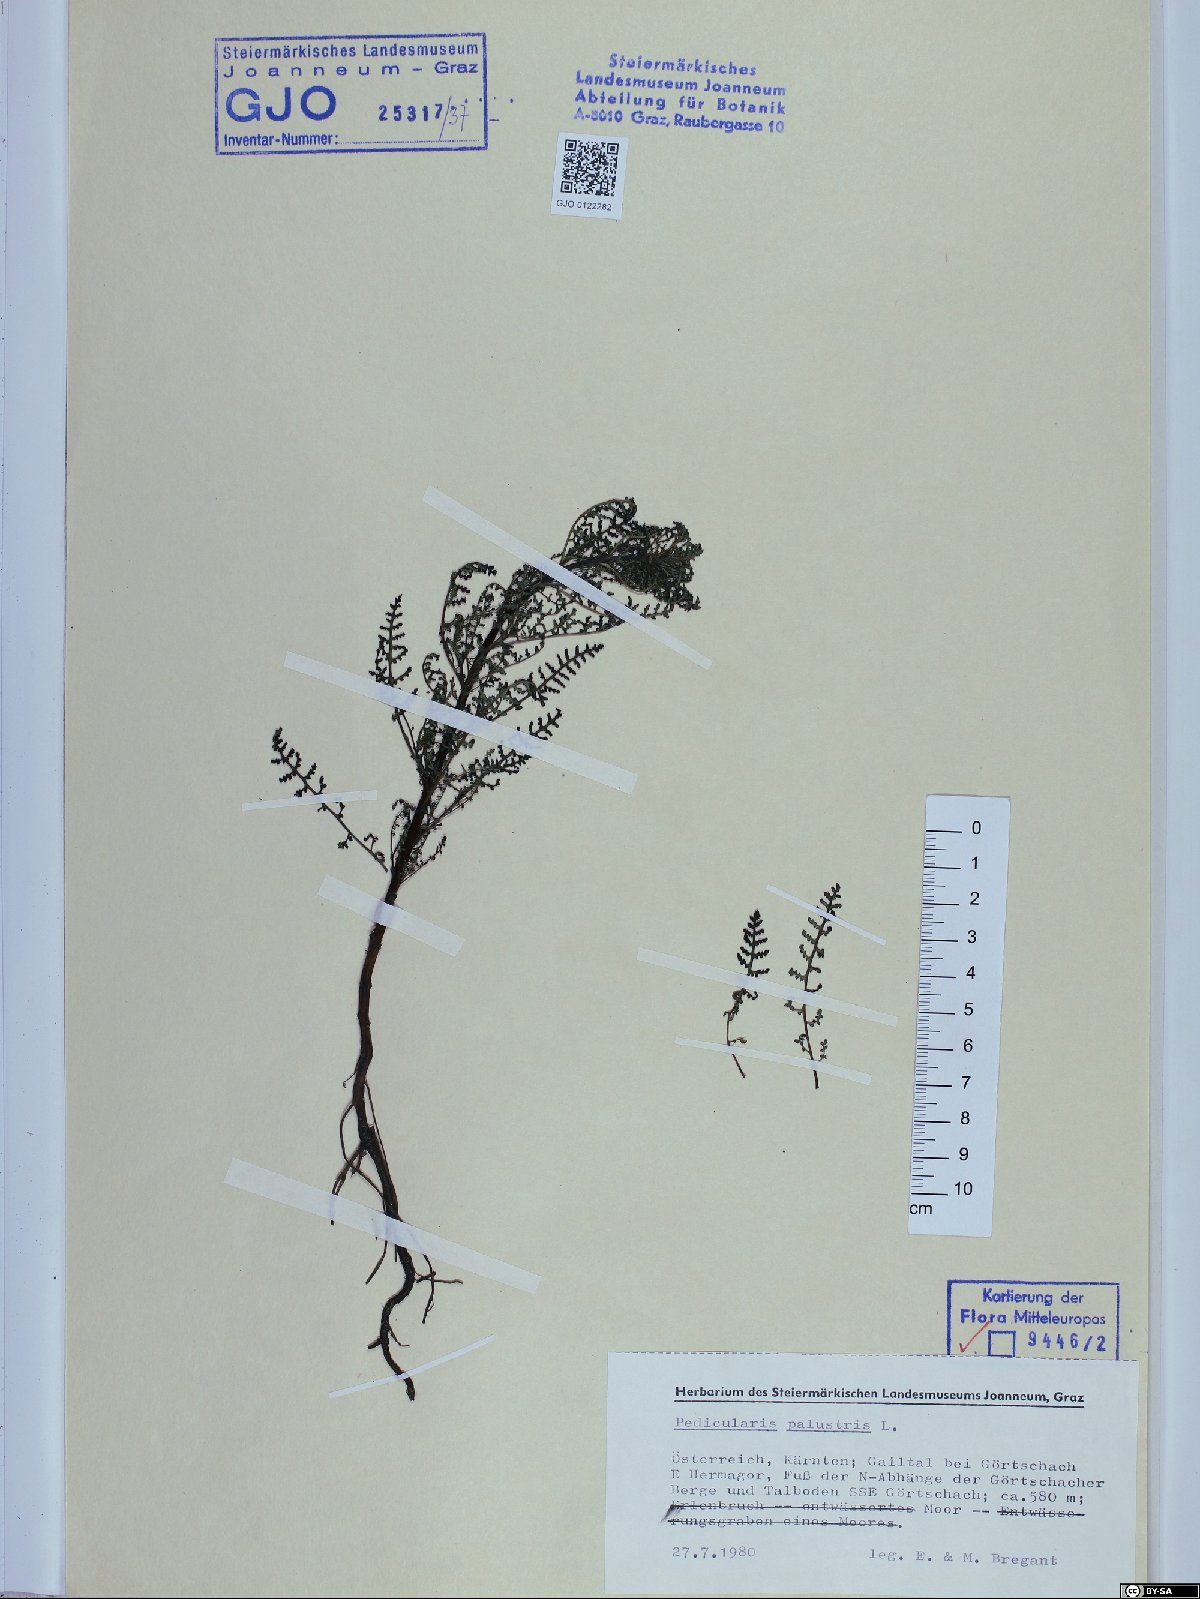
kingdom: Plantae
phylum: Tracheophyta
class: Magnoliopsida
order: Lamiales
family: Orobanchaceae
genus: Pedicularis
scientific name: Pedicularis palustris
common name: Marsh lousewort
